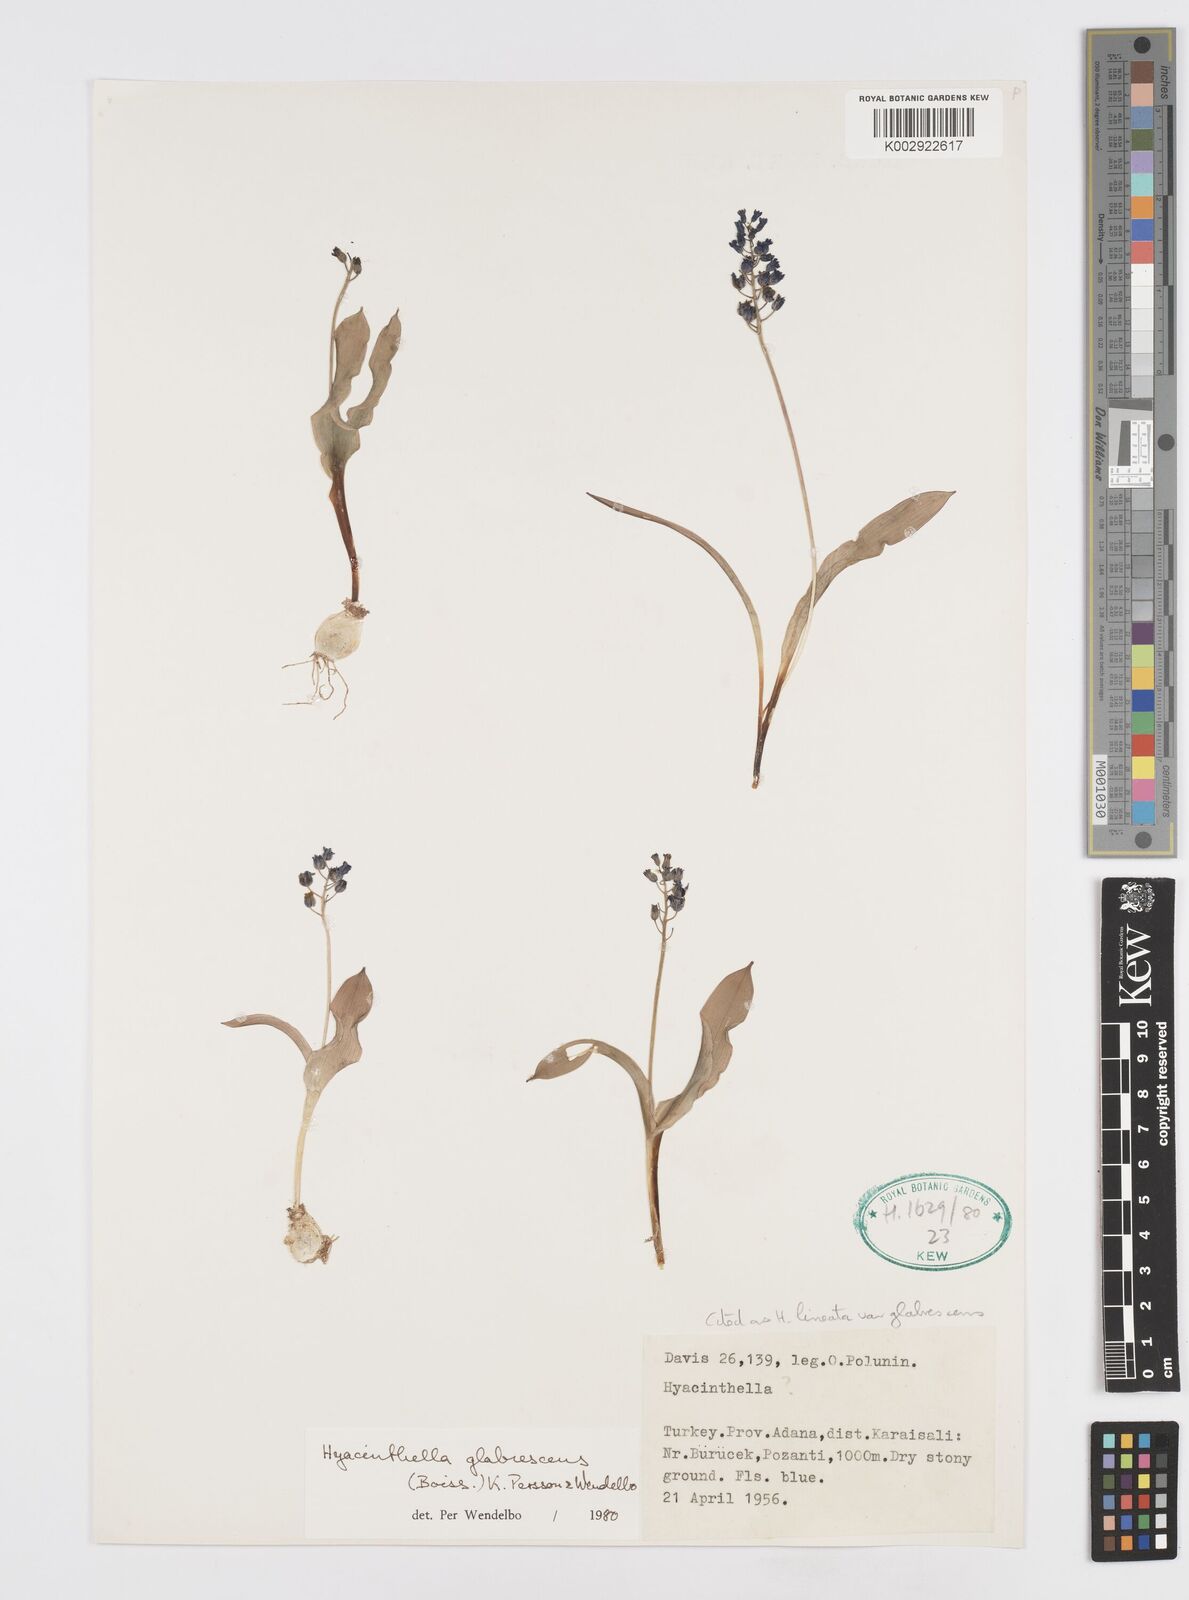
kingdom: Plantae
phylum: Tracheophyta
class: Liliopsida
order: Asparagales
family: Asparagaceae
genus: Hyacinthella
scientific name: Hyacinthella glabrescens
